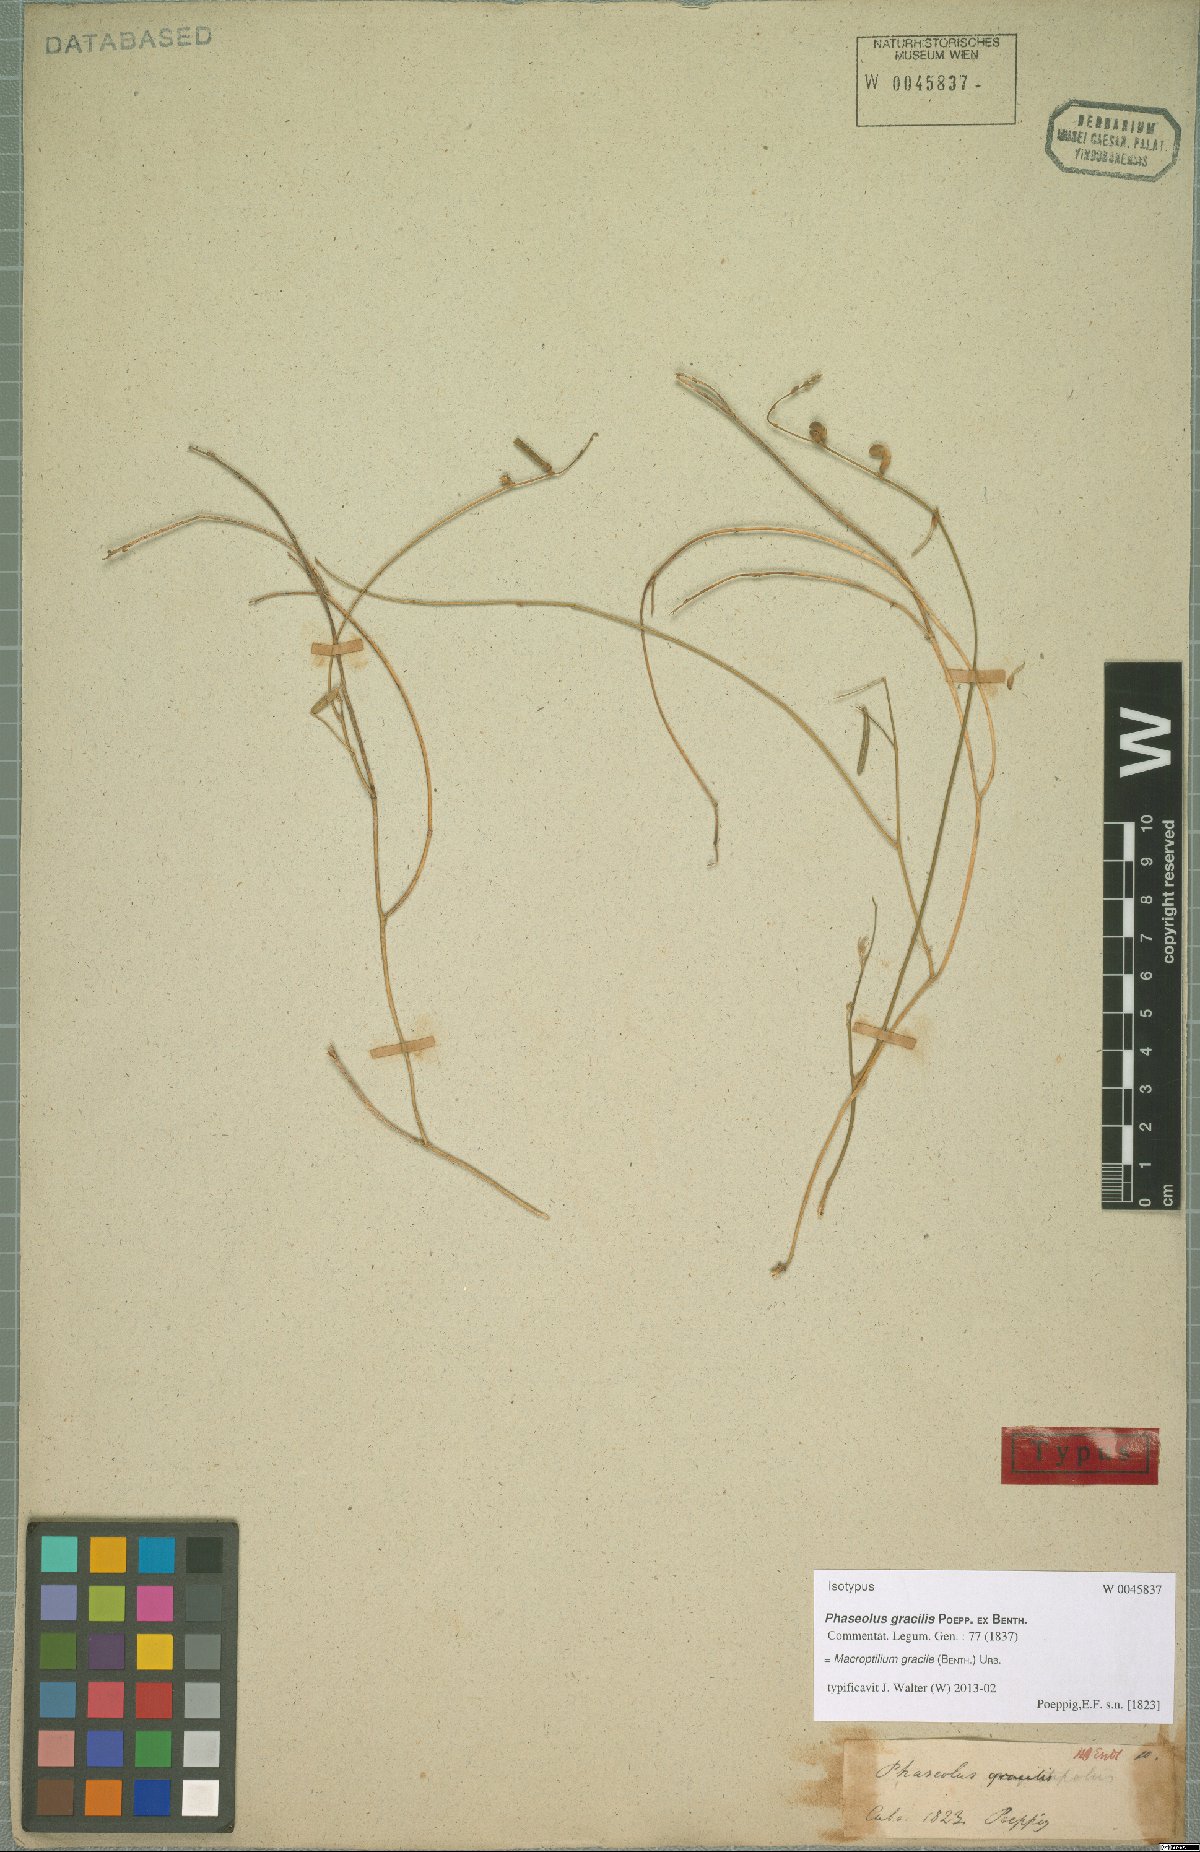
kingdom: Plantae
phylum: Tracheophyta
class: Magnoliopsida
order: Fabales
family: Fabaceae
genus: Macroptilium
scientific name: Macroptilium gracile
